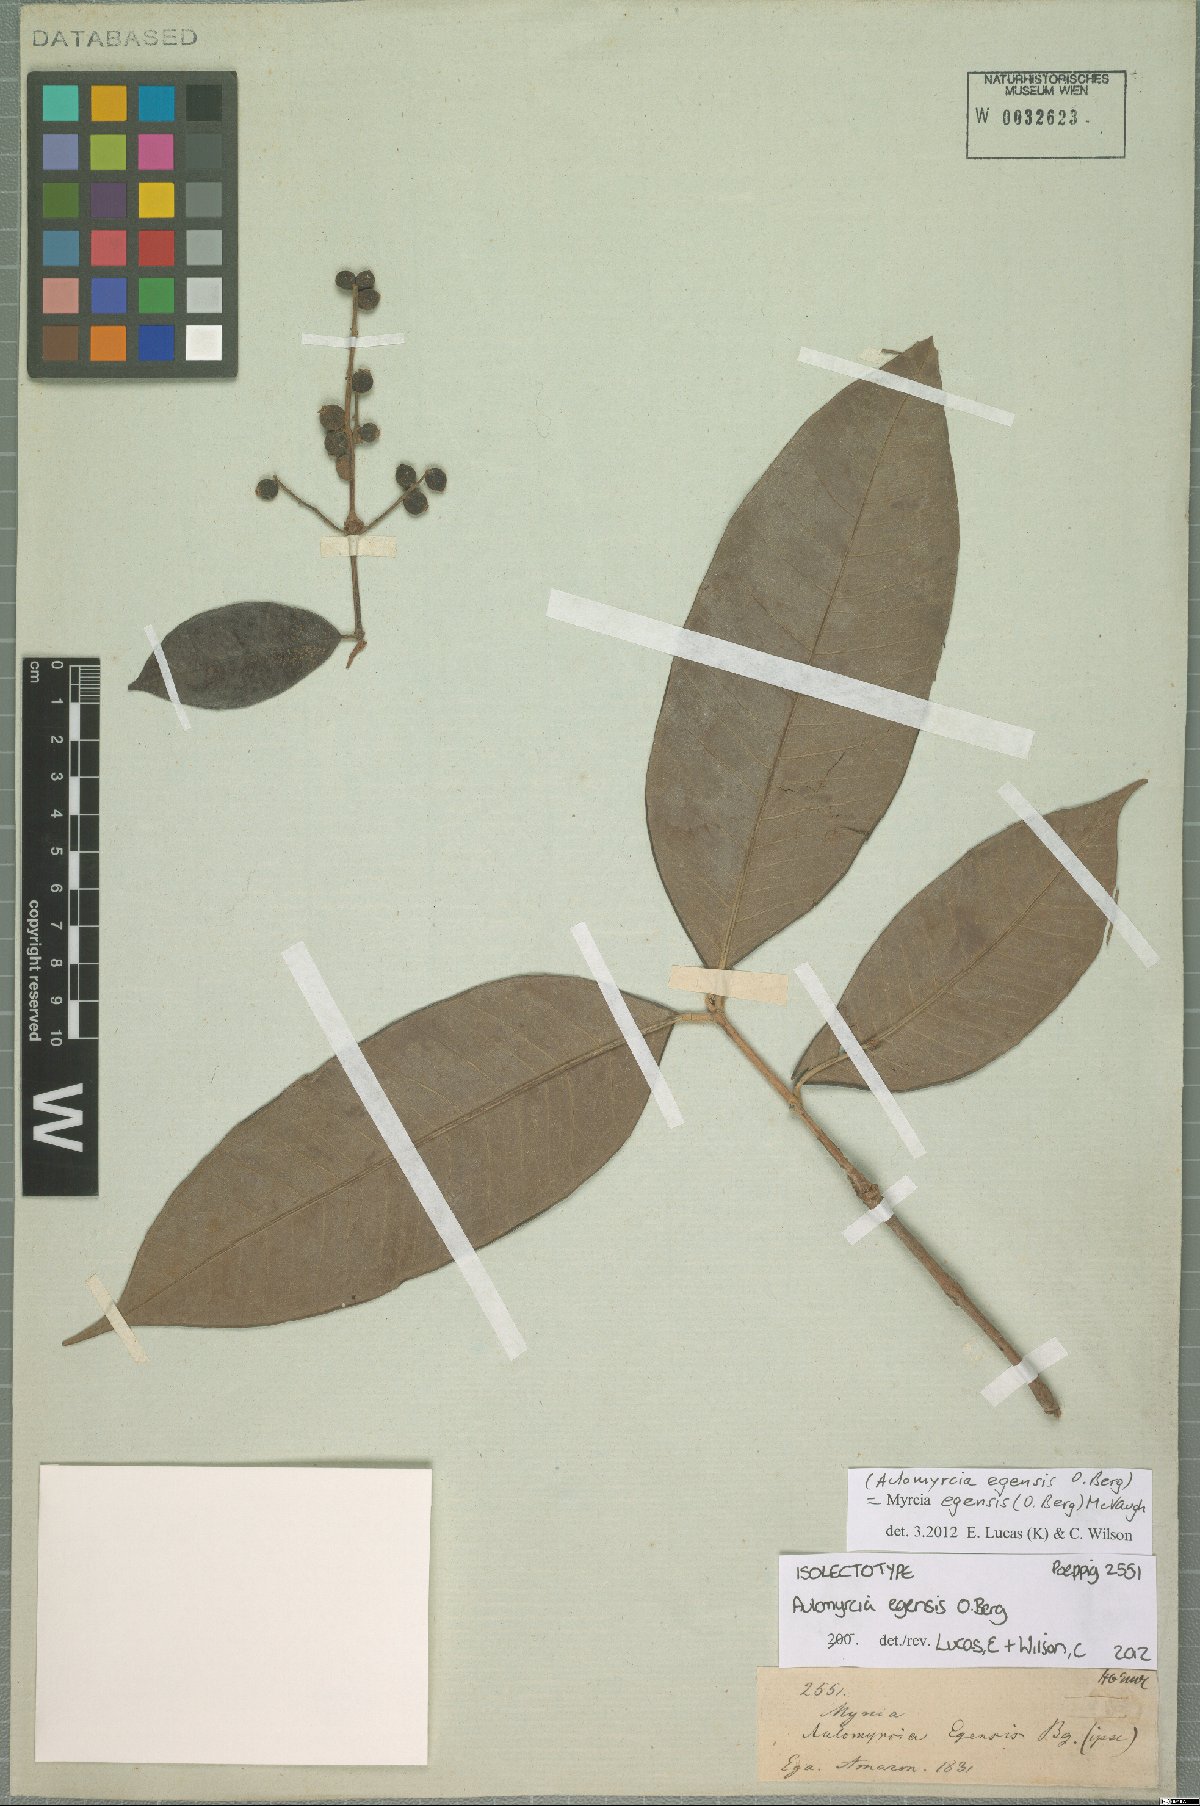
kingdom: Plantae
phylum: Tracheophyta
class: Magnoliopsida
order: Myrtales
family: Myrtaceae
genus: Myrcia
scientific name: Myrcia egensis
